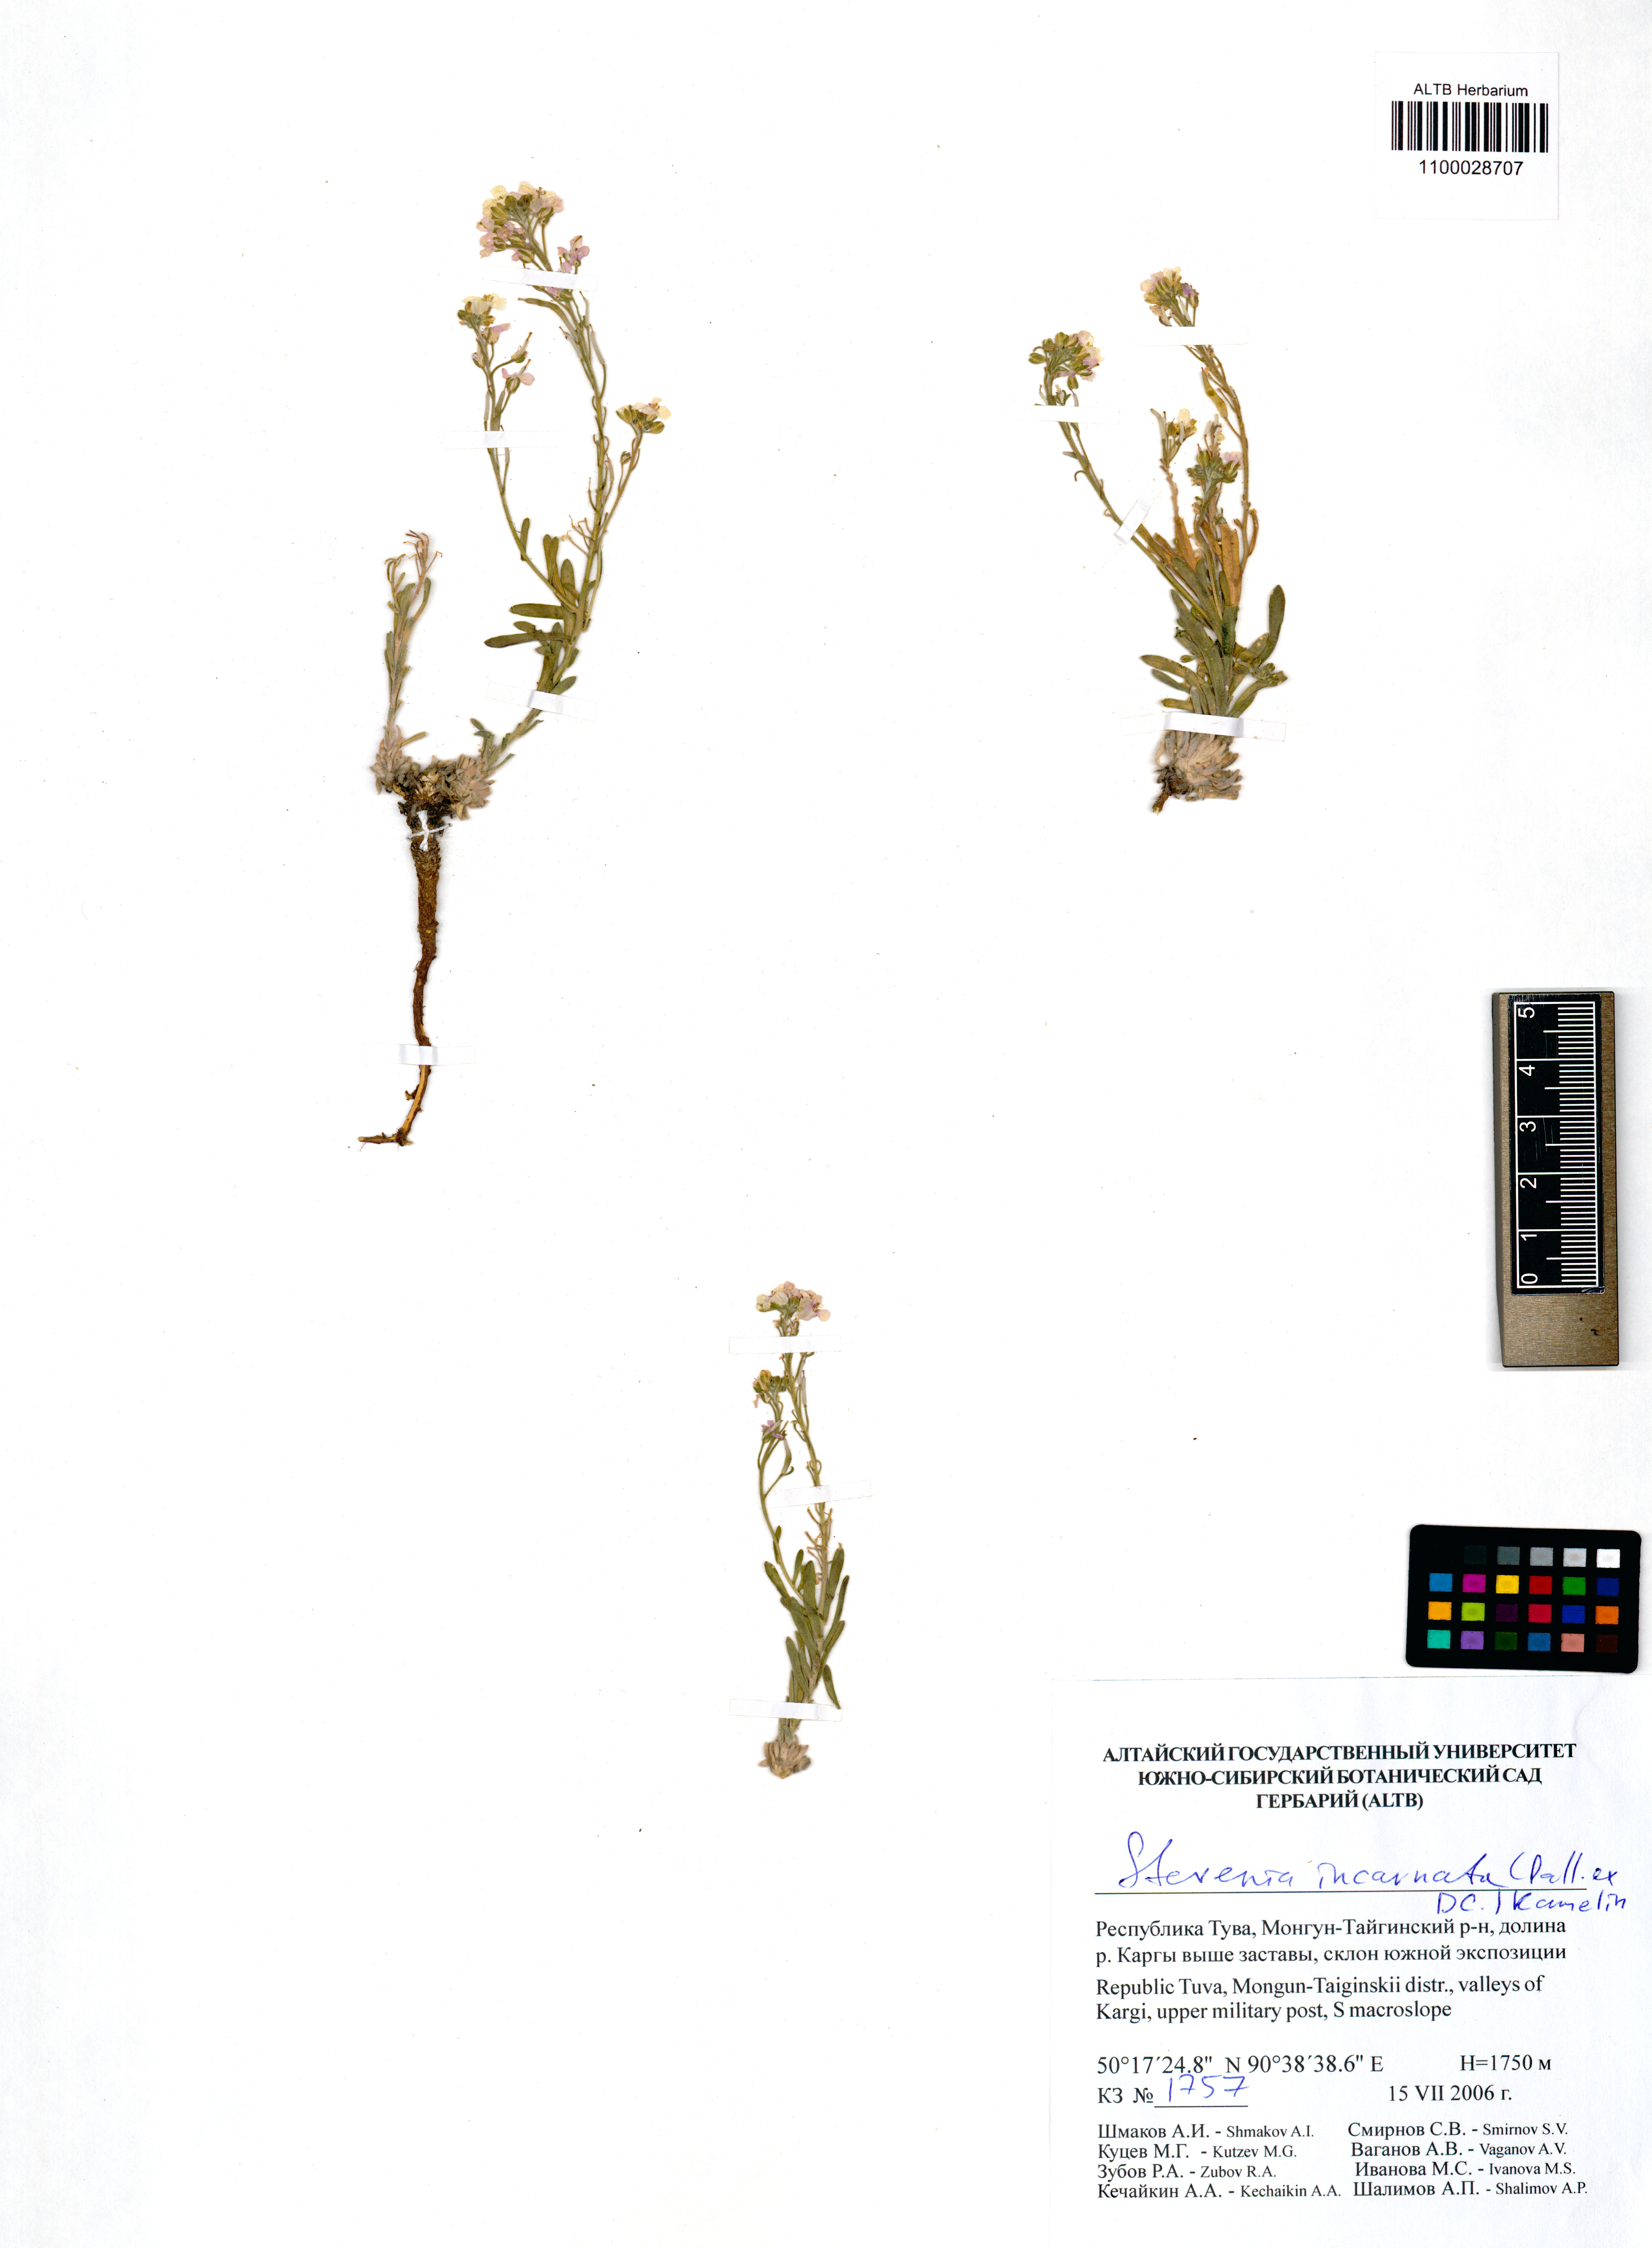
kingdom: Plantae
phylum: Tracheophyta
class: Magnoliopsida
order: Brassicales
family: Brassicaceae
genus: Stevenia
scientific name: Stevenia incarnata
